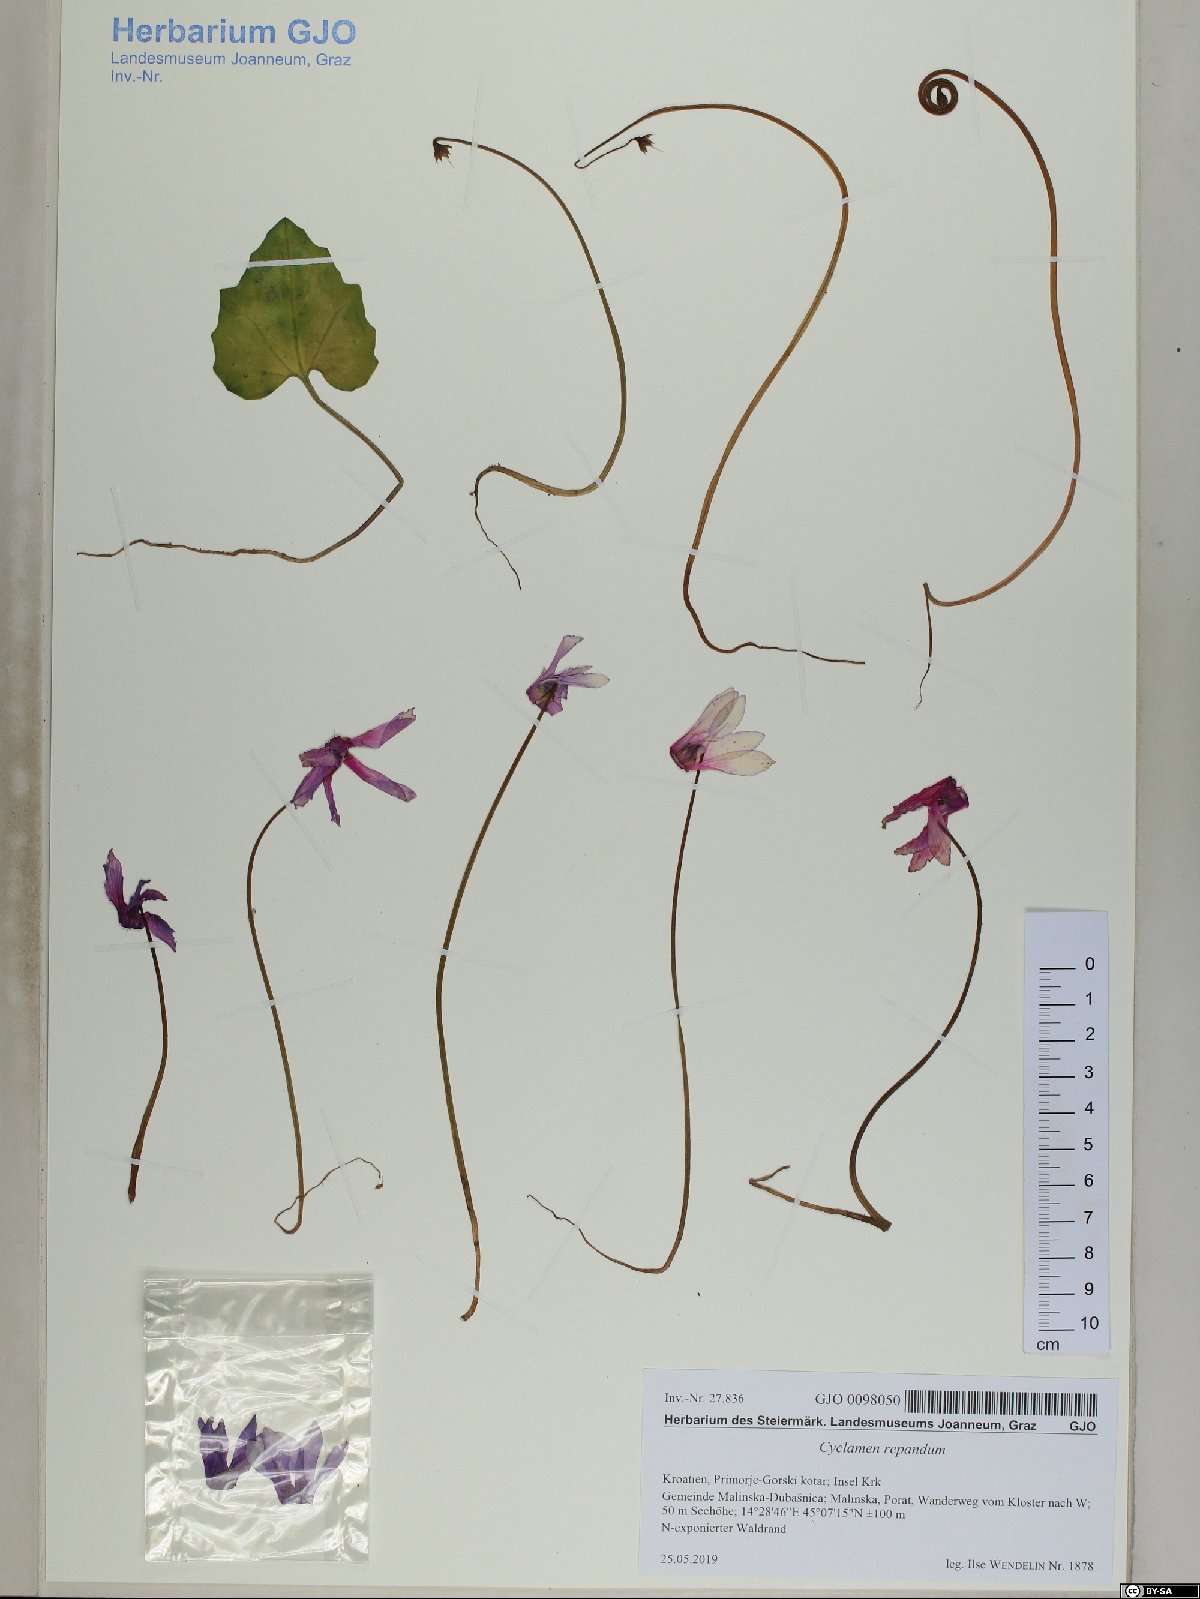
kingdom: Plantae
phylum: Tracheophyta
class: Magnoliopsida
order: Ericales
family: Primulaceae
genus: Cyclamen
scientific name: Cyclamen repandum
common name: Spring sowbread
